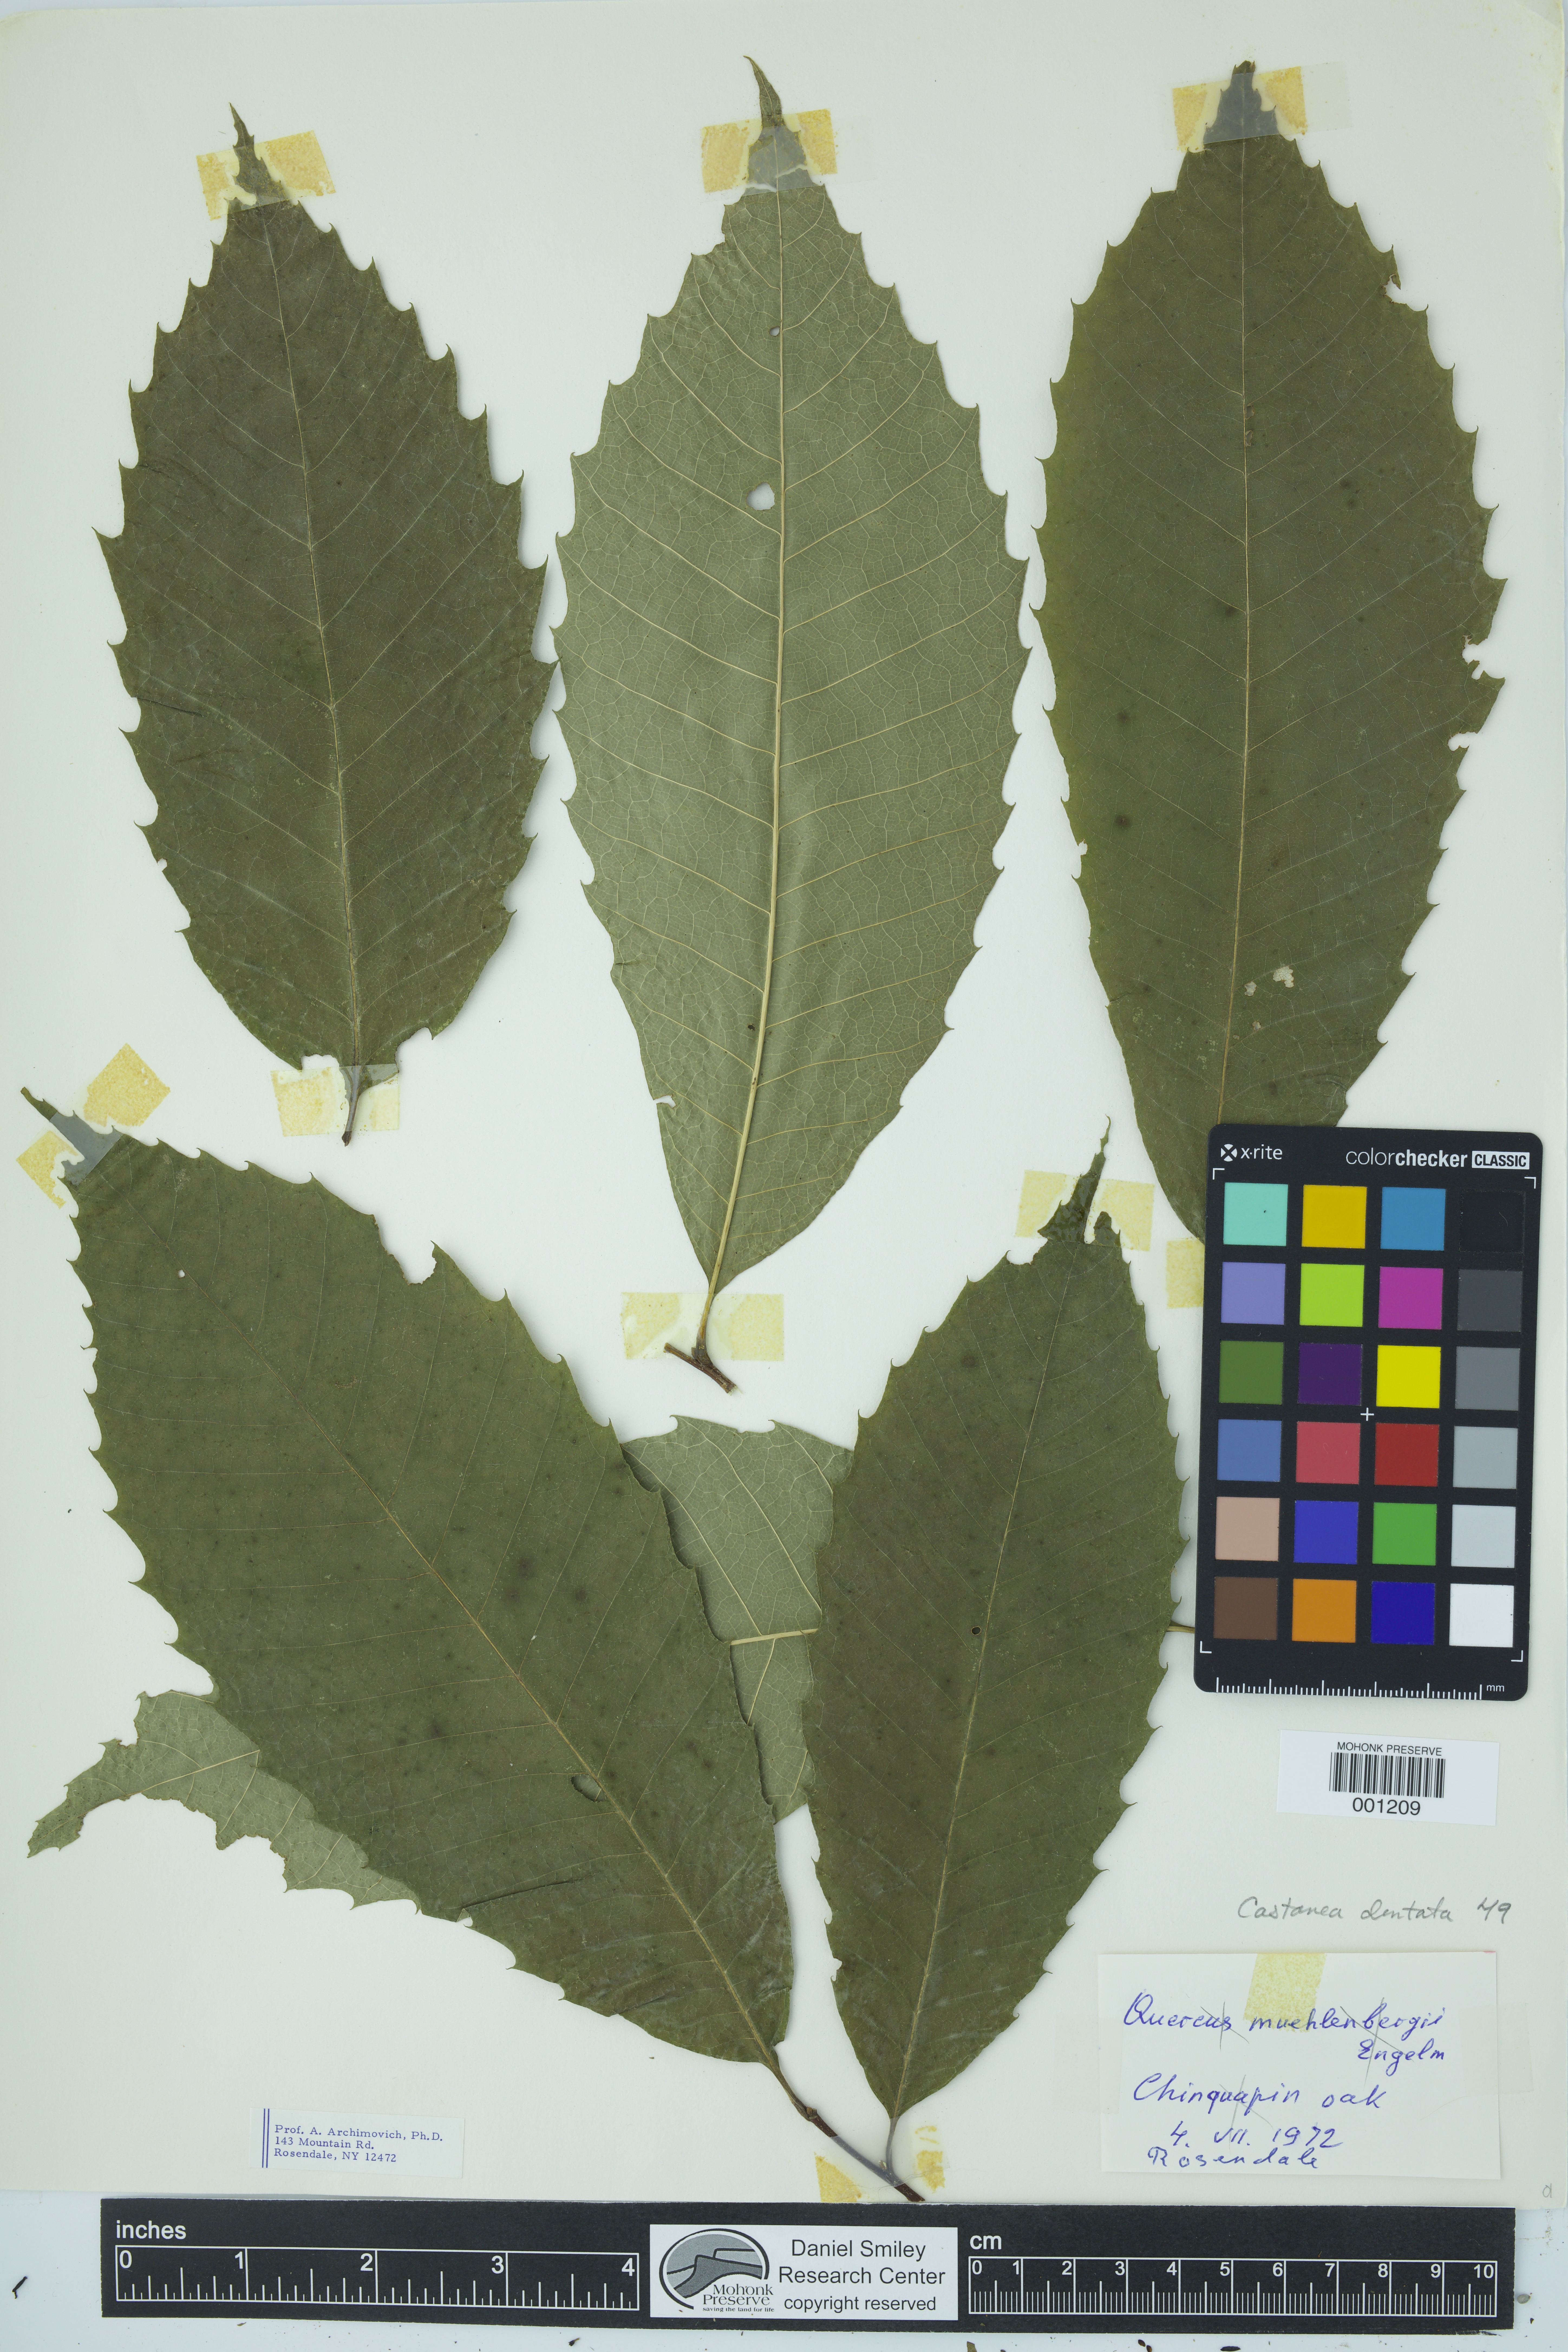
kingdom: Plantae
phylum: Tracheophyta
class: Magnoliopsida
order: Fagales
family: Fagaceae
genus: Castanea
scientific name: Castanea dentata
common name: American chestnut
